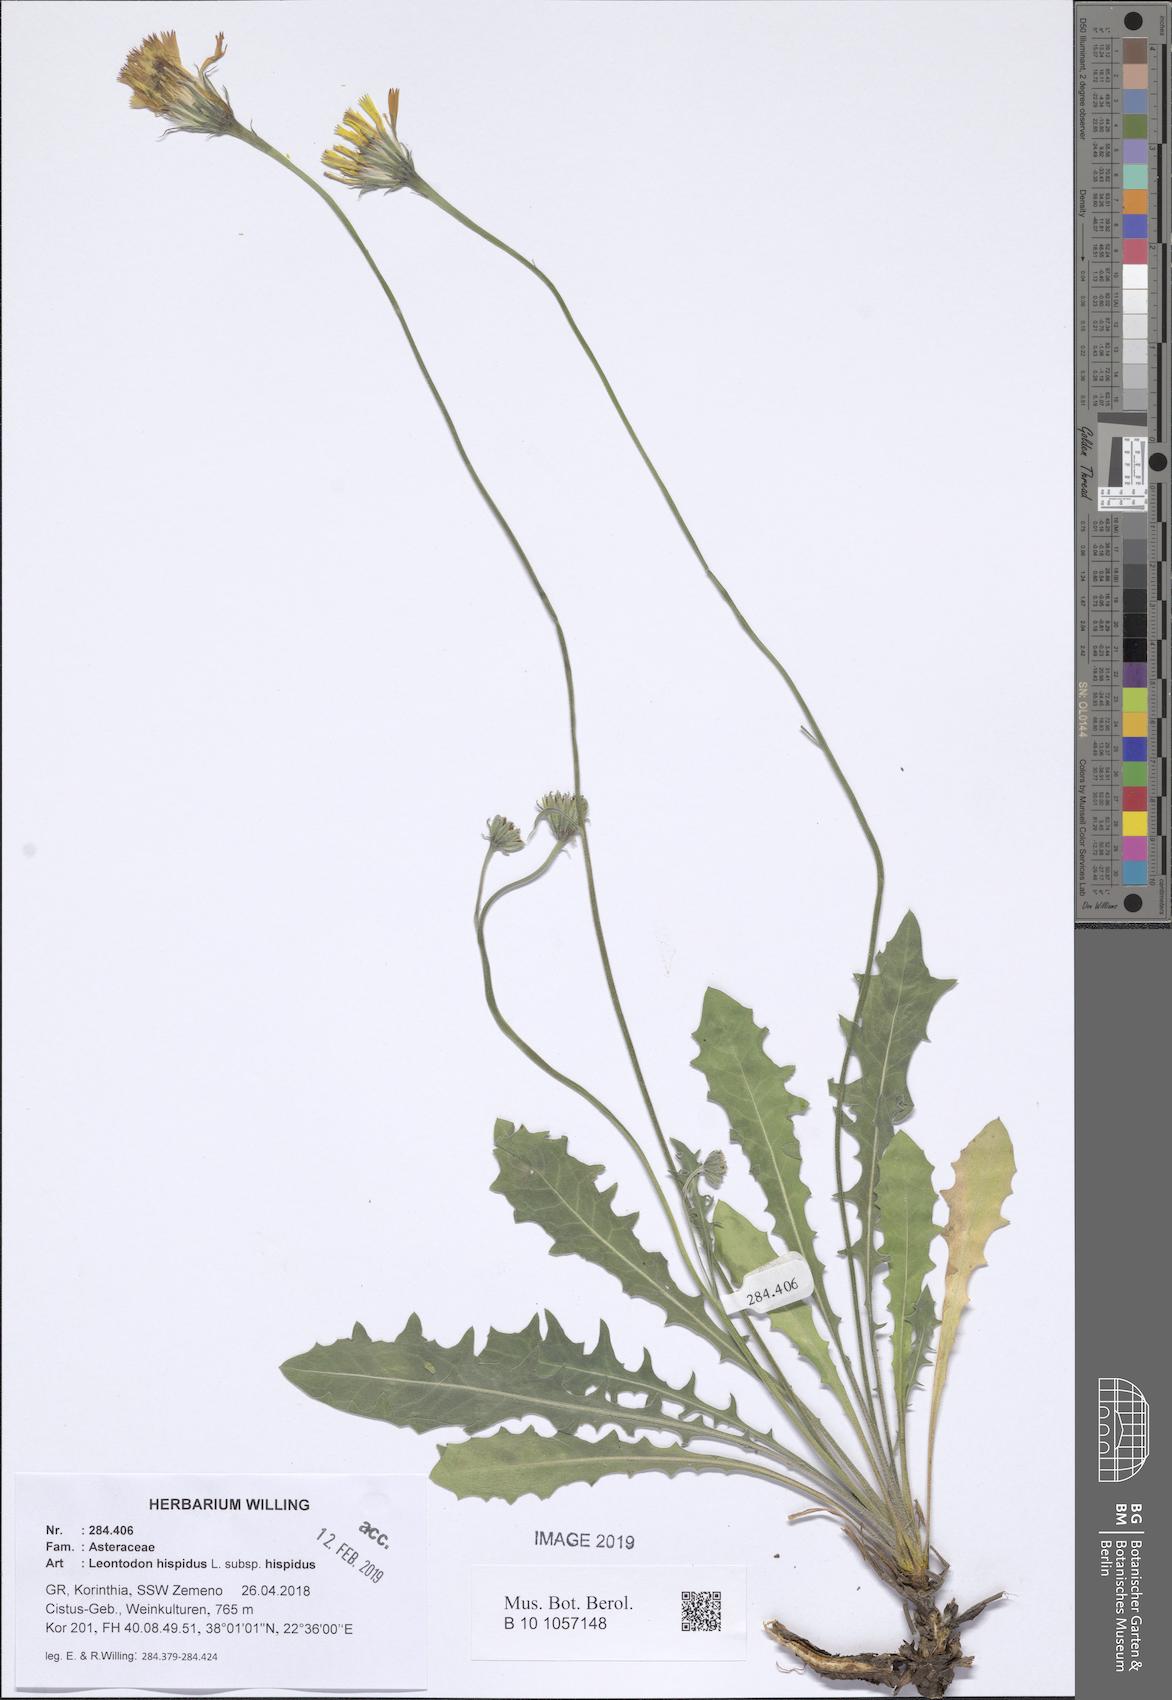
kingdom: Plantae
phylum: Tracheophyta
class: Magnoliopsida
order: Asterales
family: Asteraceae
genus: Leontodon
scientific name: Leontodon hispidus
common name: Rough hawkbit
